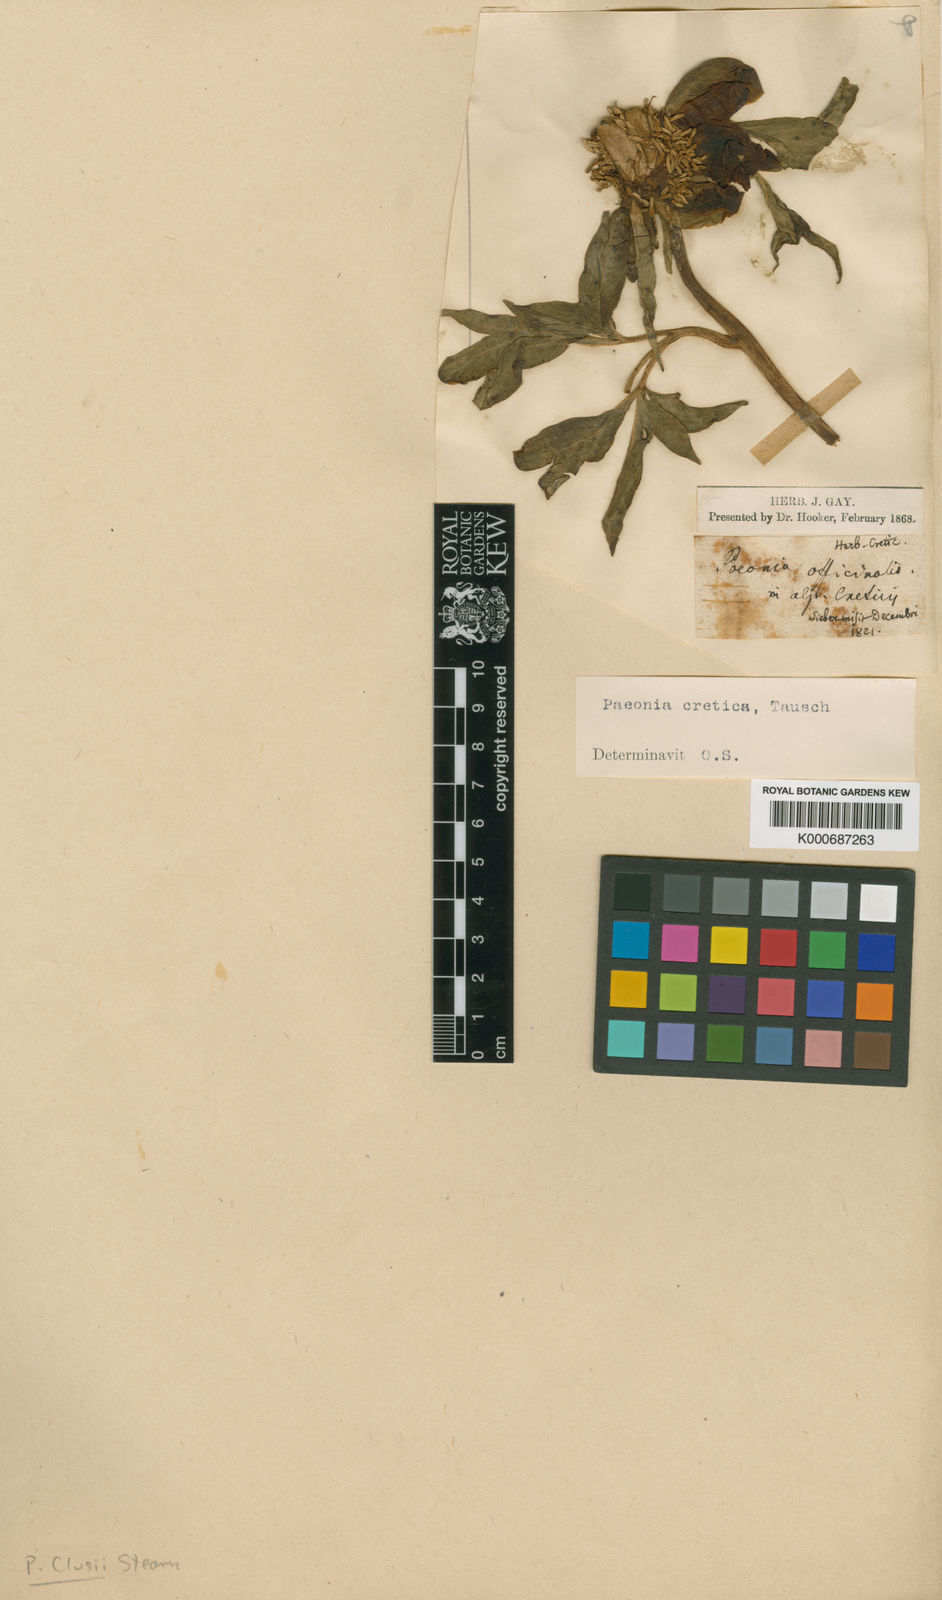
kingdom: Plantae
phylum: Tracheophyta
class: Magnoliopsida
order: Saxifragales
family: Paeoniaceae
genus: Paeonia
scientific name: Paeonia clusii
